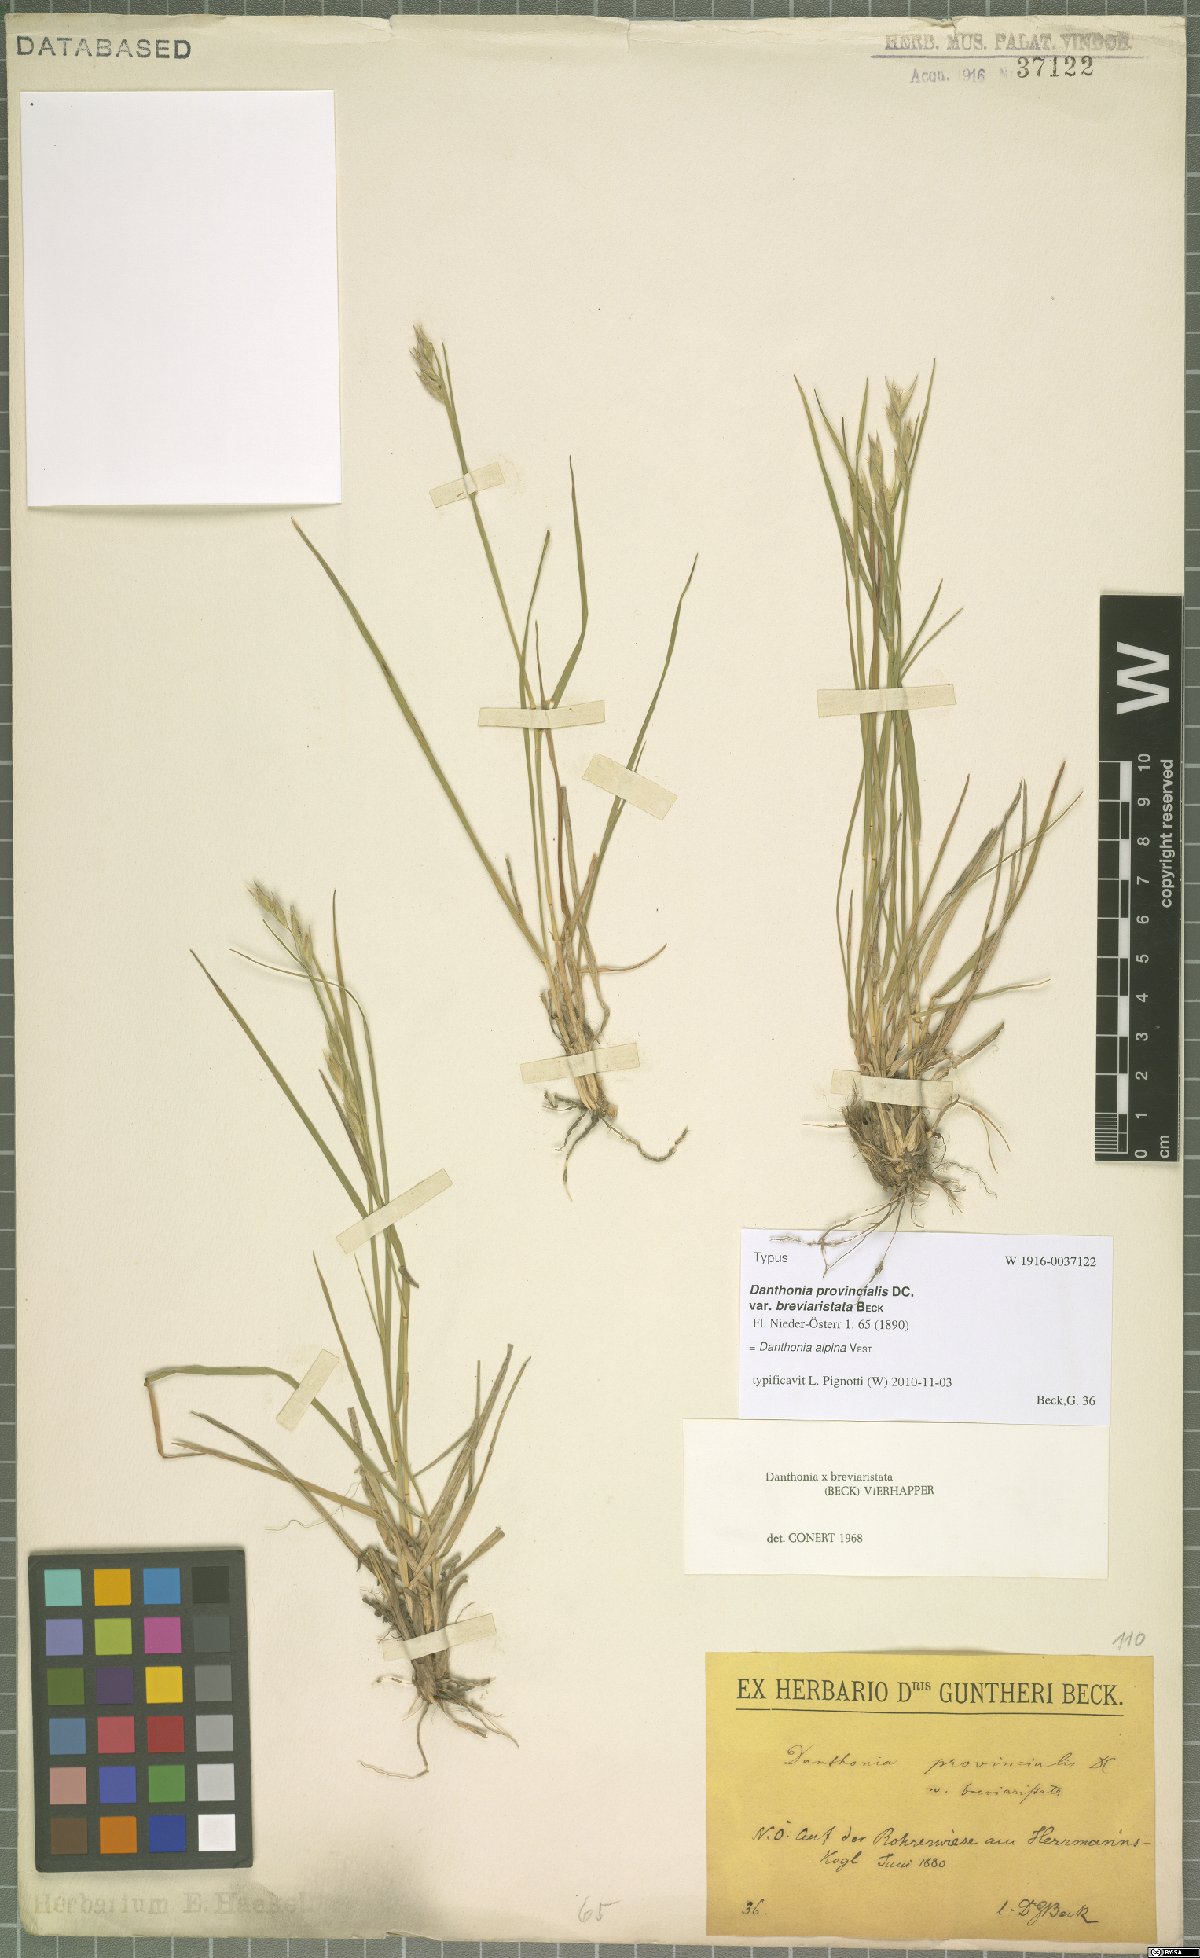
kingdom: Plantae
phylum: Tracheophyta
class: Liliopsida
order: Poales
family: Poaceae
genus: Danthonia
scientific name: Danthonia alpina
